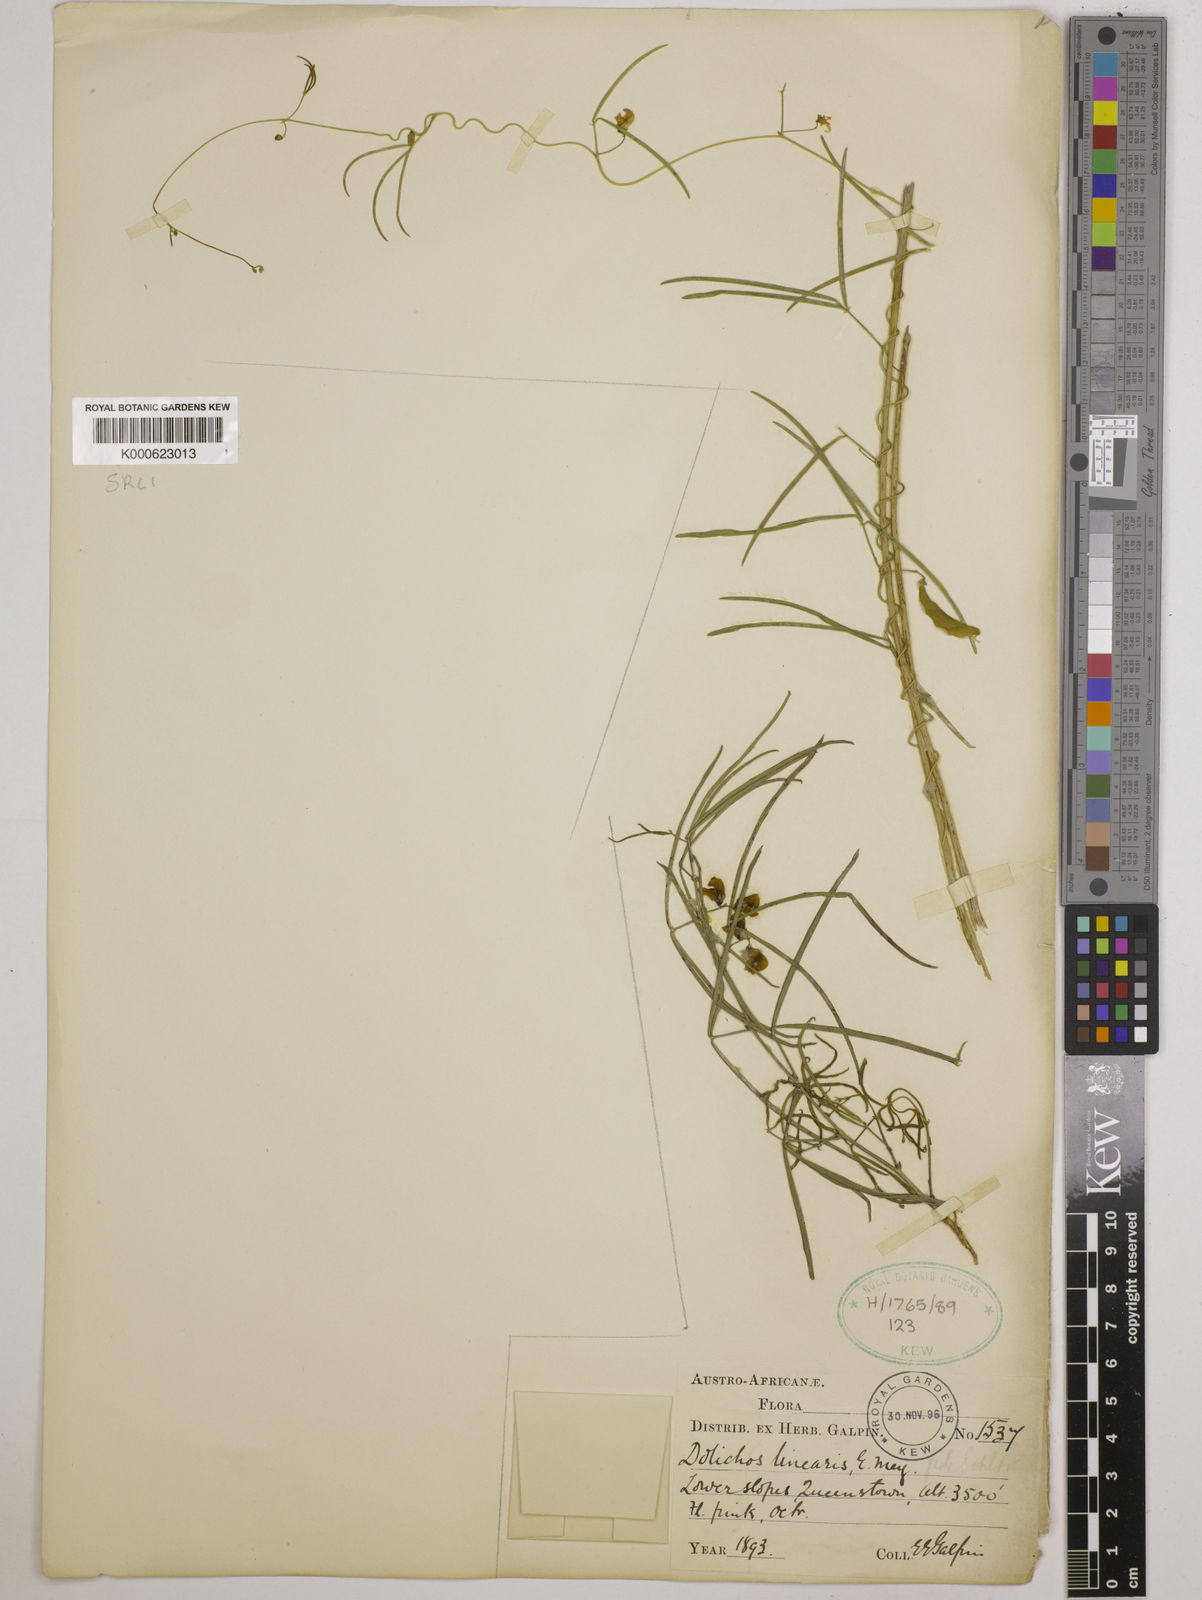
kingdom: Plantae
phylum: Tracheophyta
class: Magnoliopsida
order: Fabales
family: Fabaceae
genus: Dolichos
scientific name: Dolichos linearis
